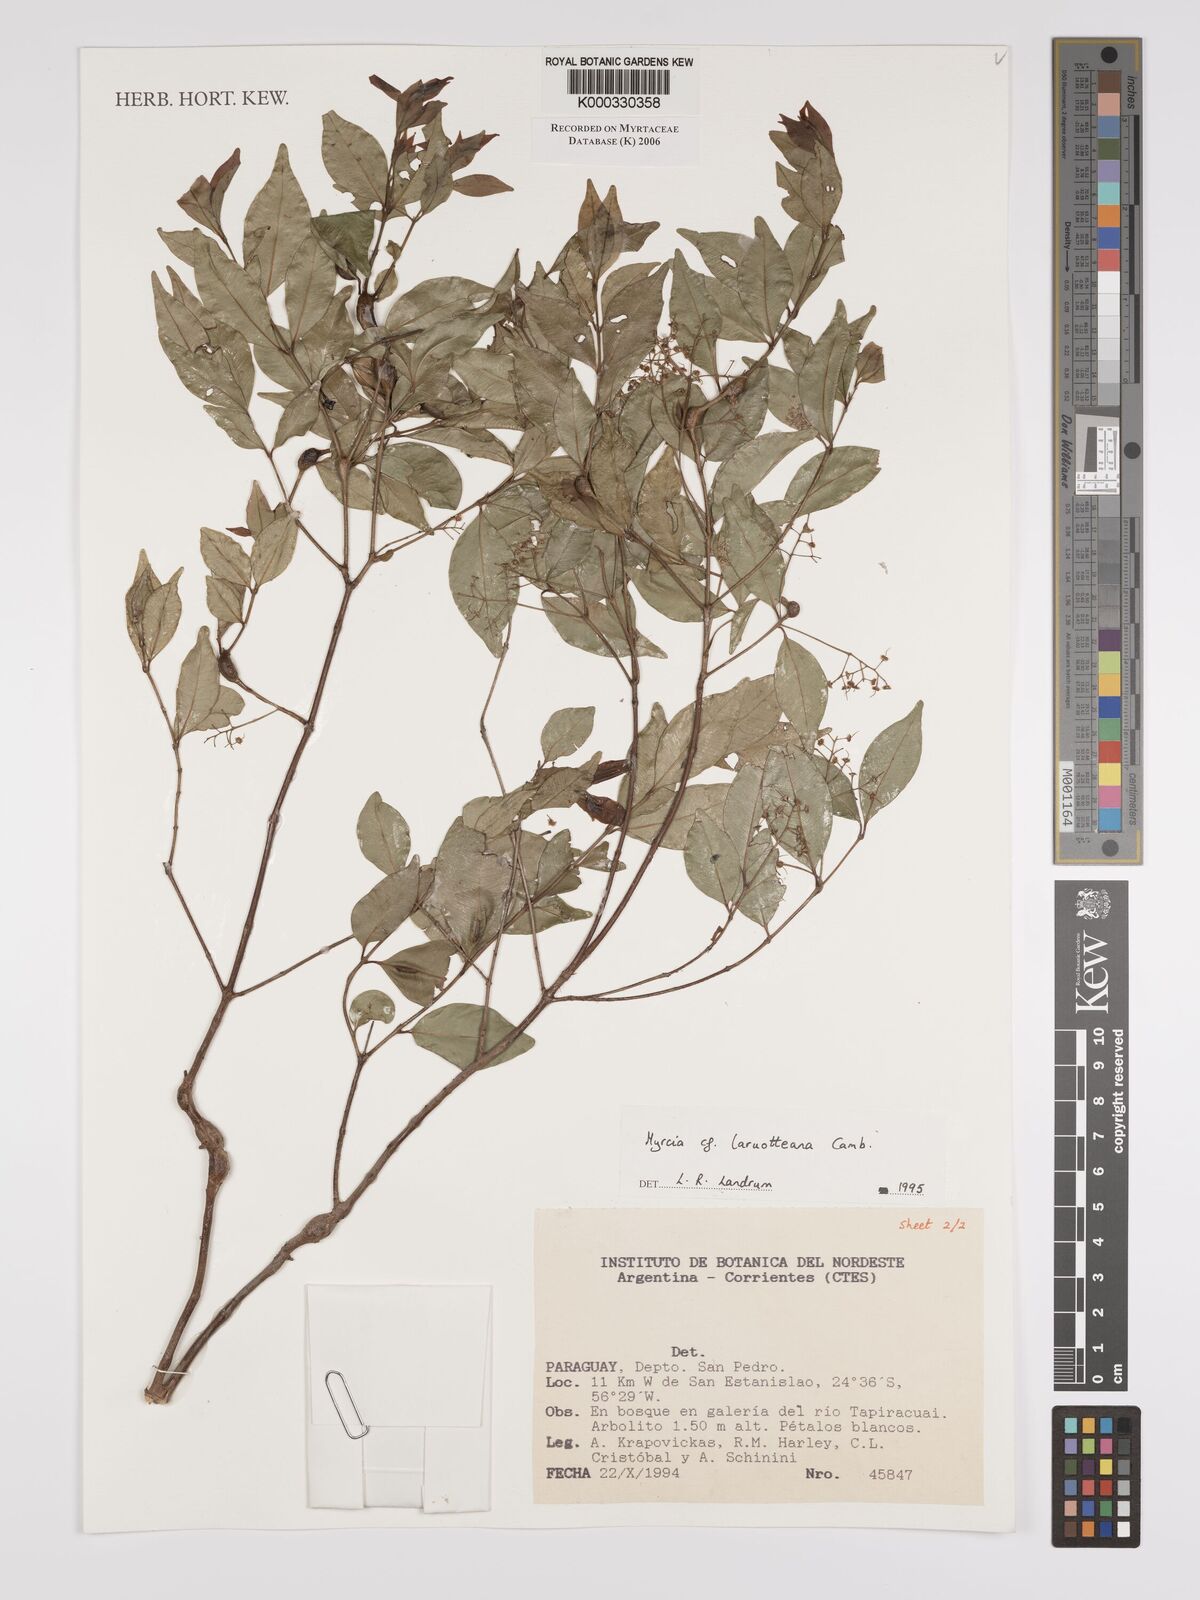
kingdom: Plantae
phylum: Tracheophyta
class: Magnoliopsida
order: Myrtales
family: Myrtaceae
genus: Myrcia
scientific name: Myrcia laruotteana
